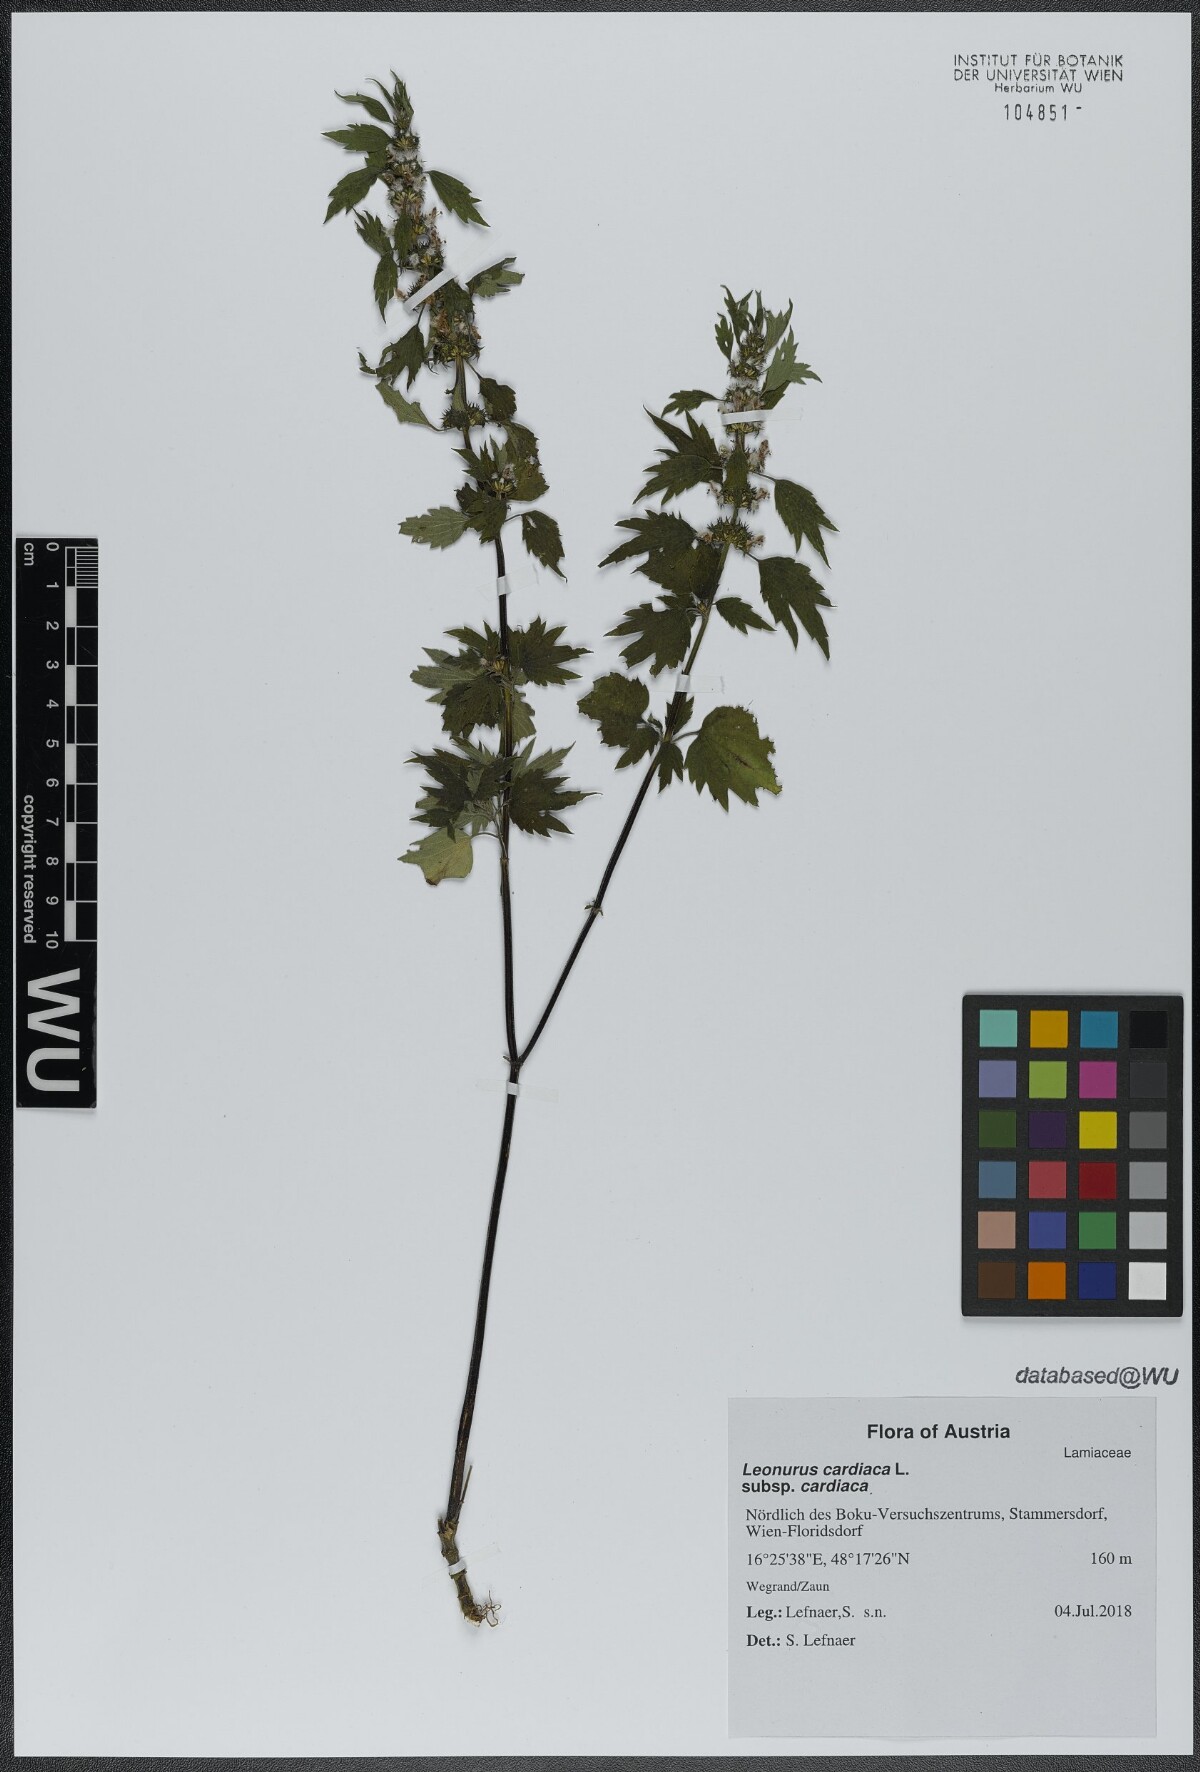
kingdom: Plantae
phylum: Tracheophyta
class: Magnoliopsida
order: Lamiales
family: Lamiaceae
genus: Leonurus
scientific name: Leonurus cardiaca
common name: Motherwort
